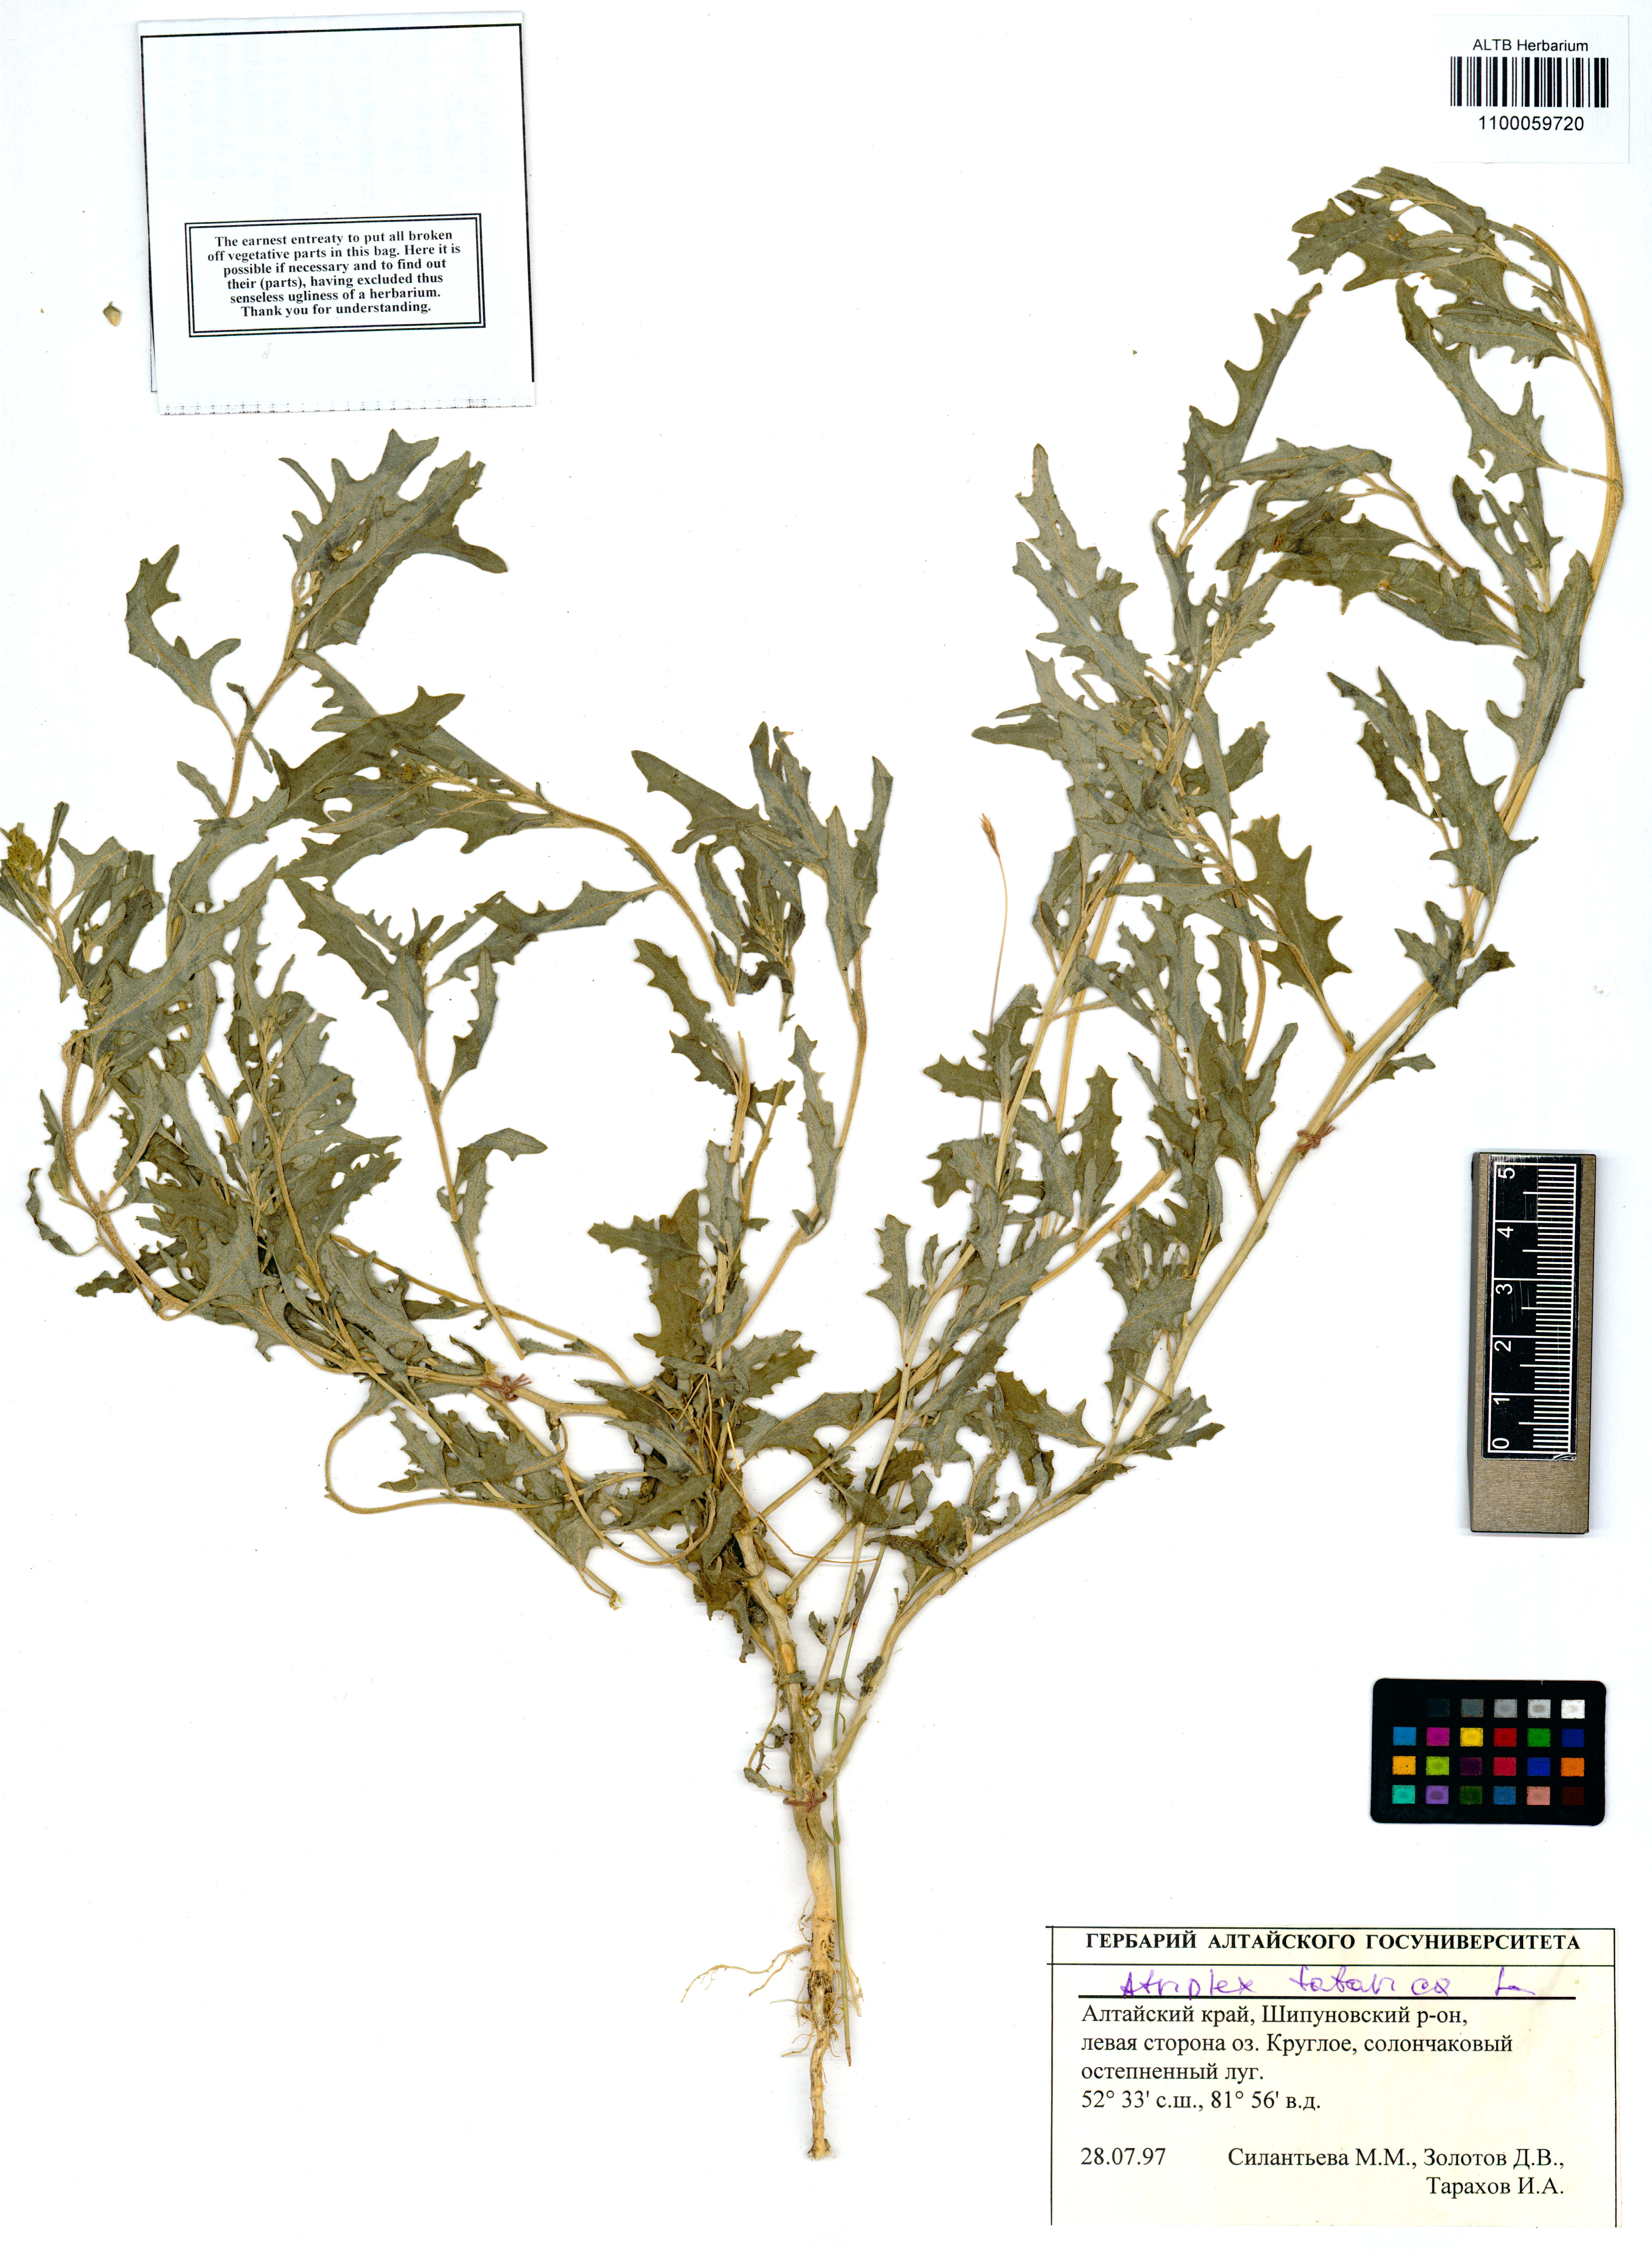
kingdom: Plantae
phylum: Tracheophyta
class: Magnoliopsida
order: Caryophyllales
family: Amaranthaceae
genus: Atriplex
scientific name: Atriplex tatarica
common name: Tatarian orache
